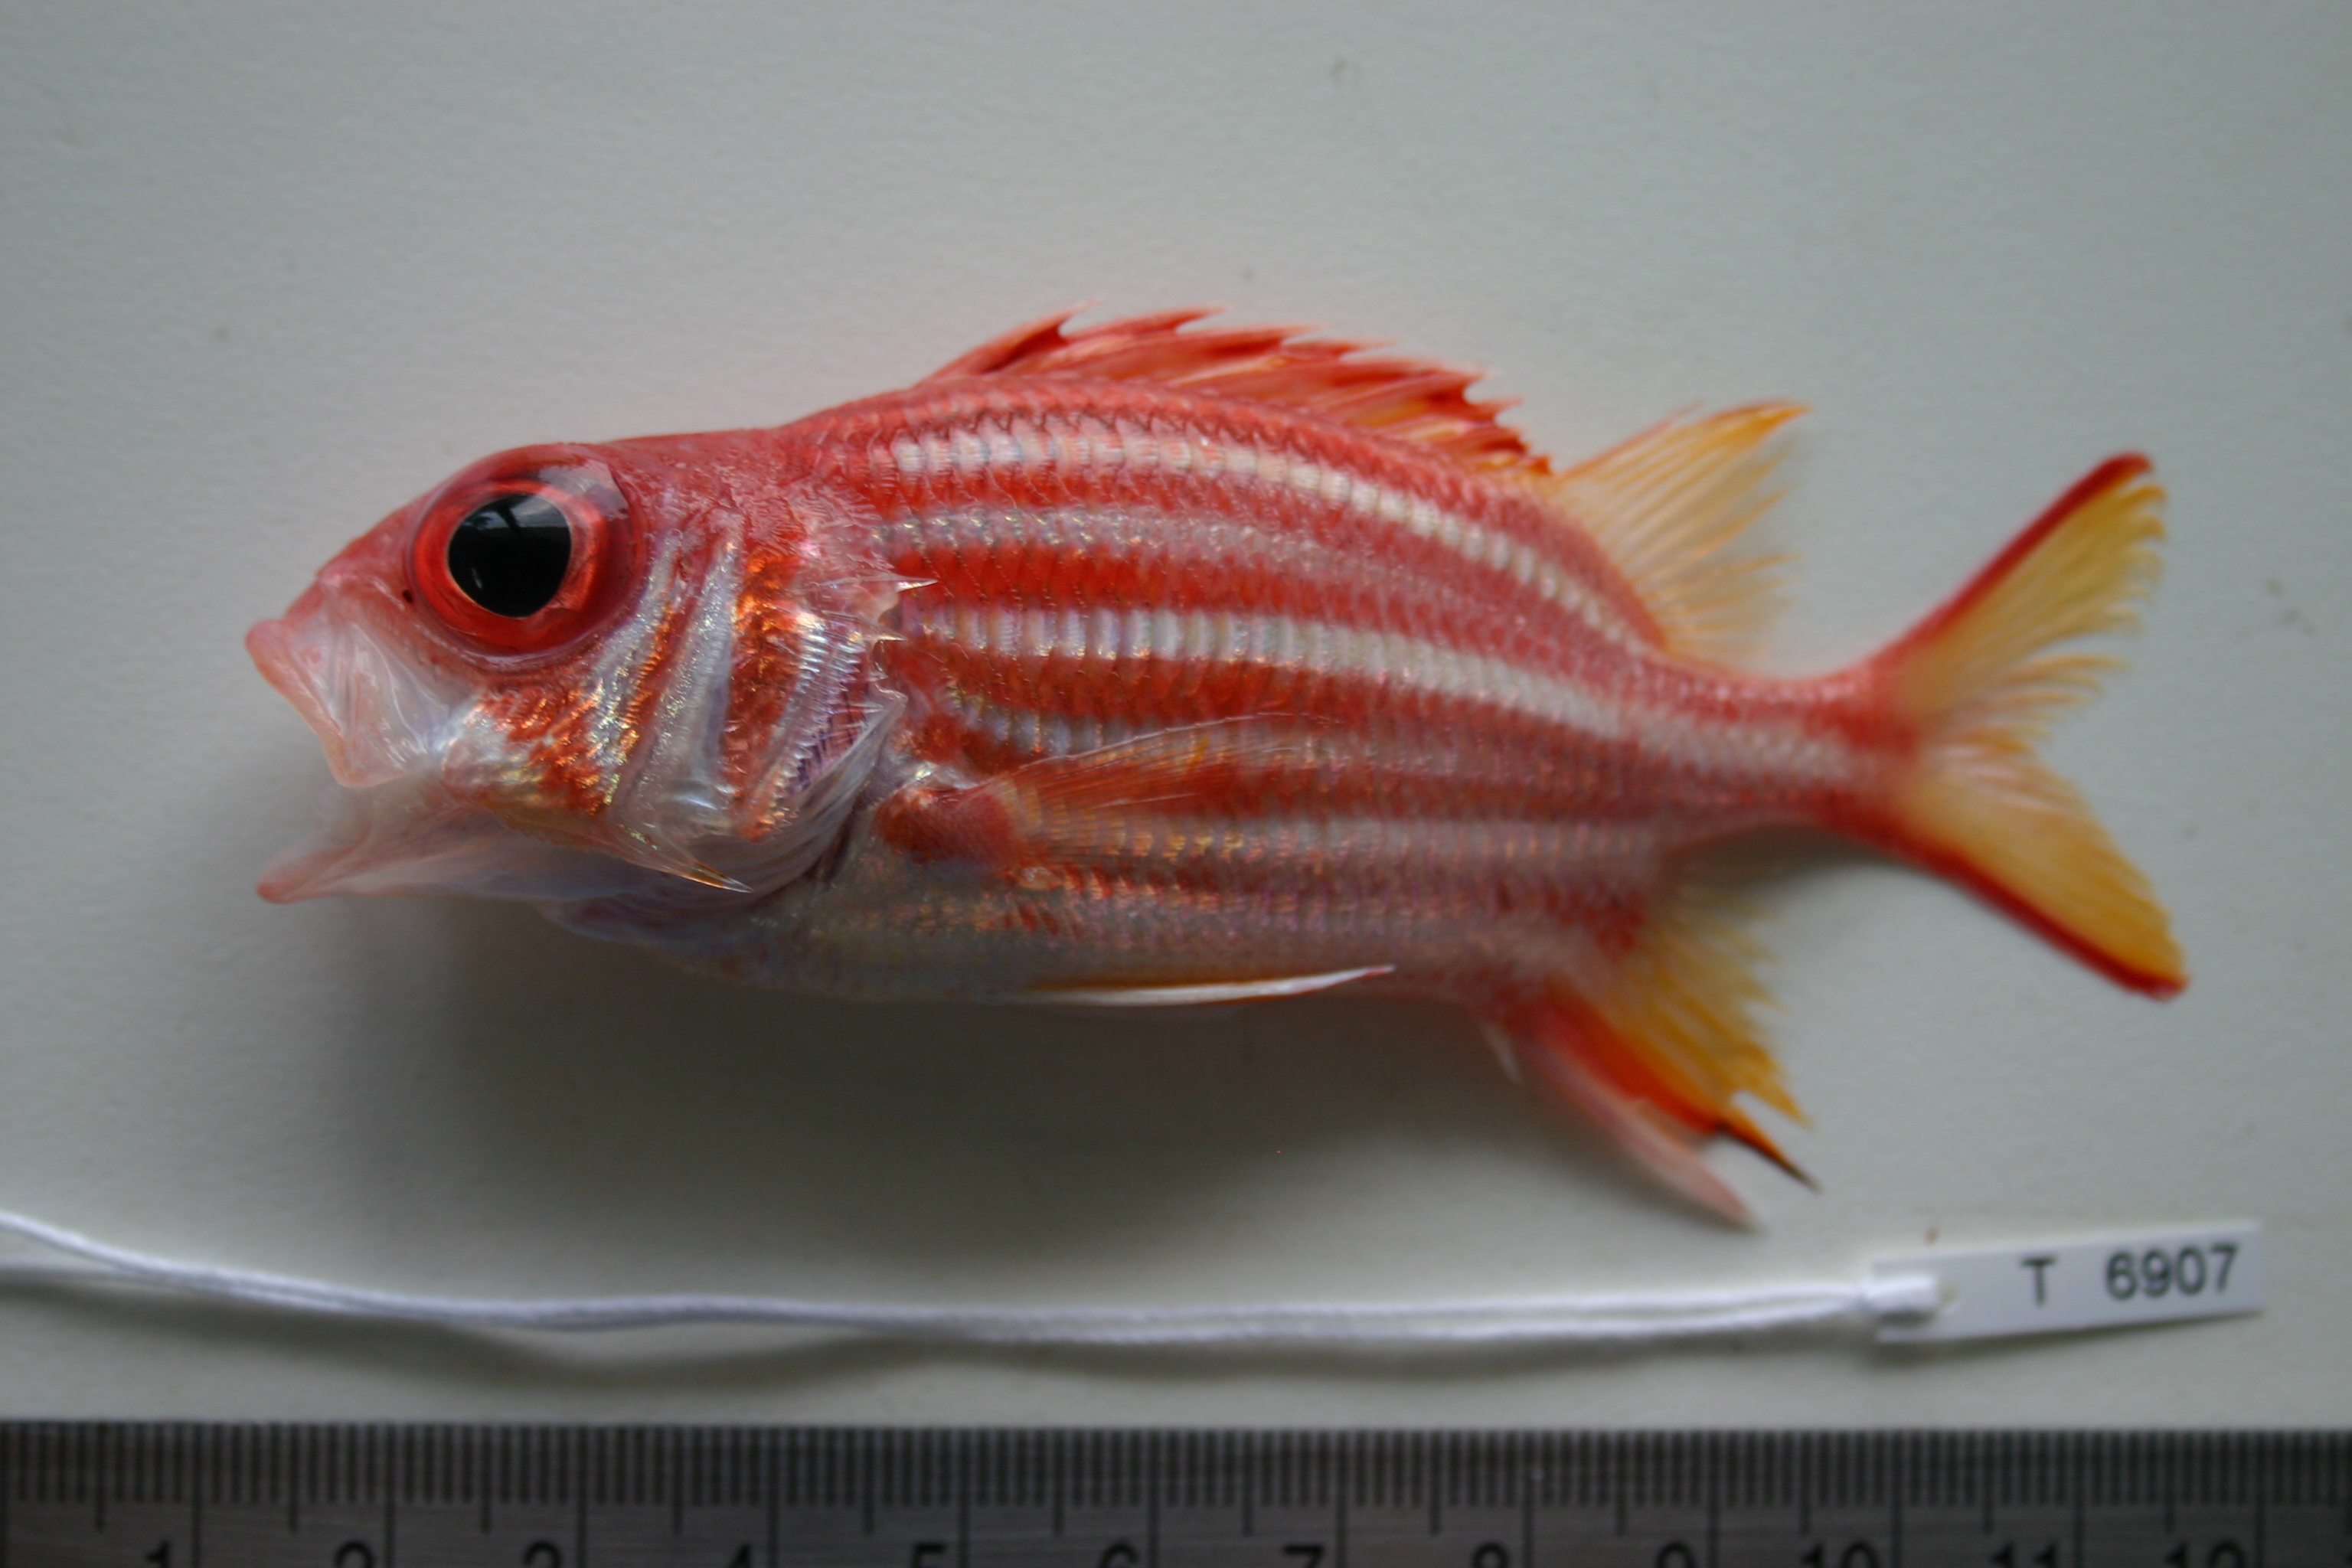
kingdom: Animalia
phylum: Chordata
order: Beryciformes
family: Holocentridae
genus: Sargocentron
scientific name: Sargocentron seychellense
